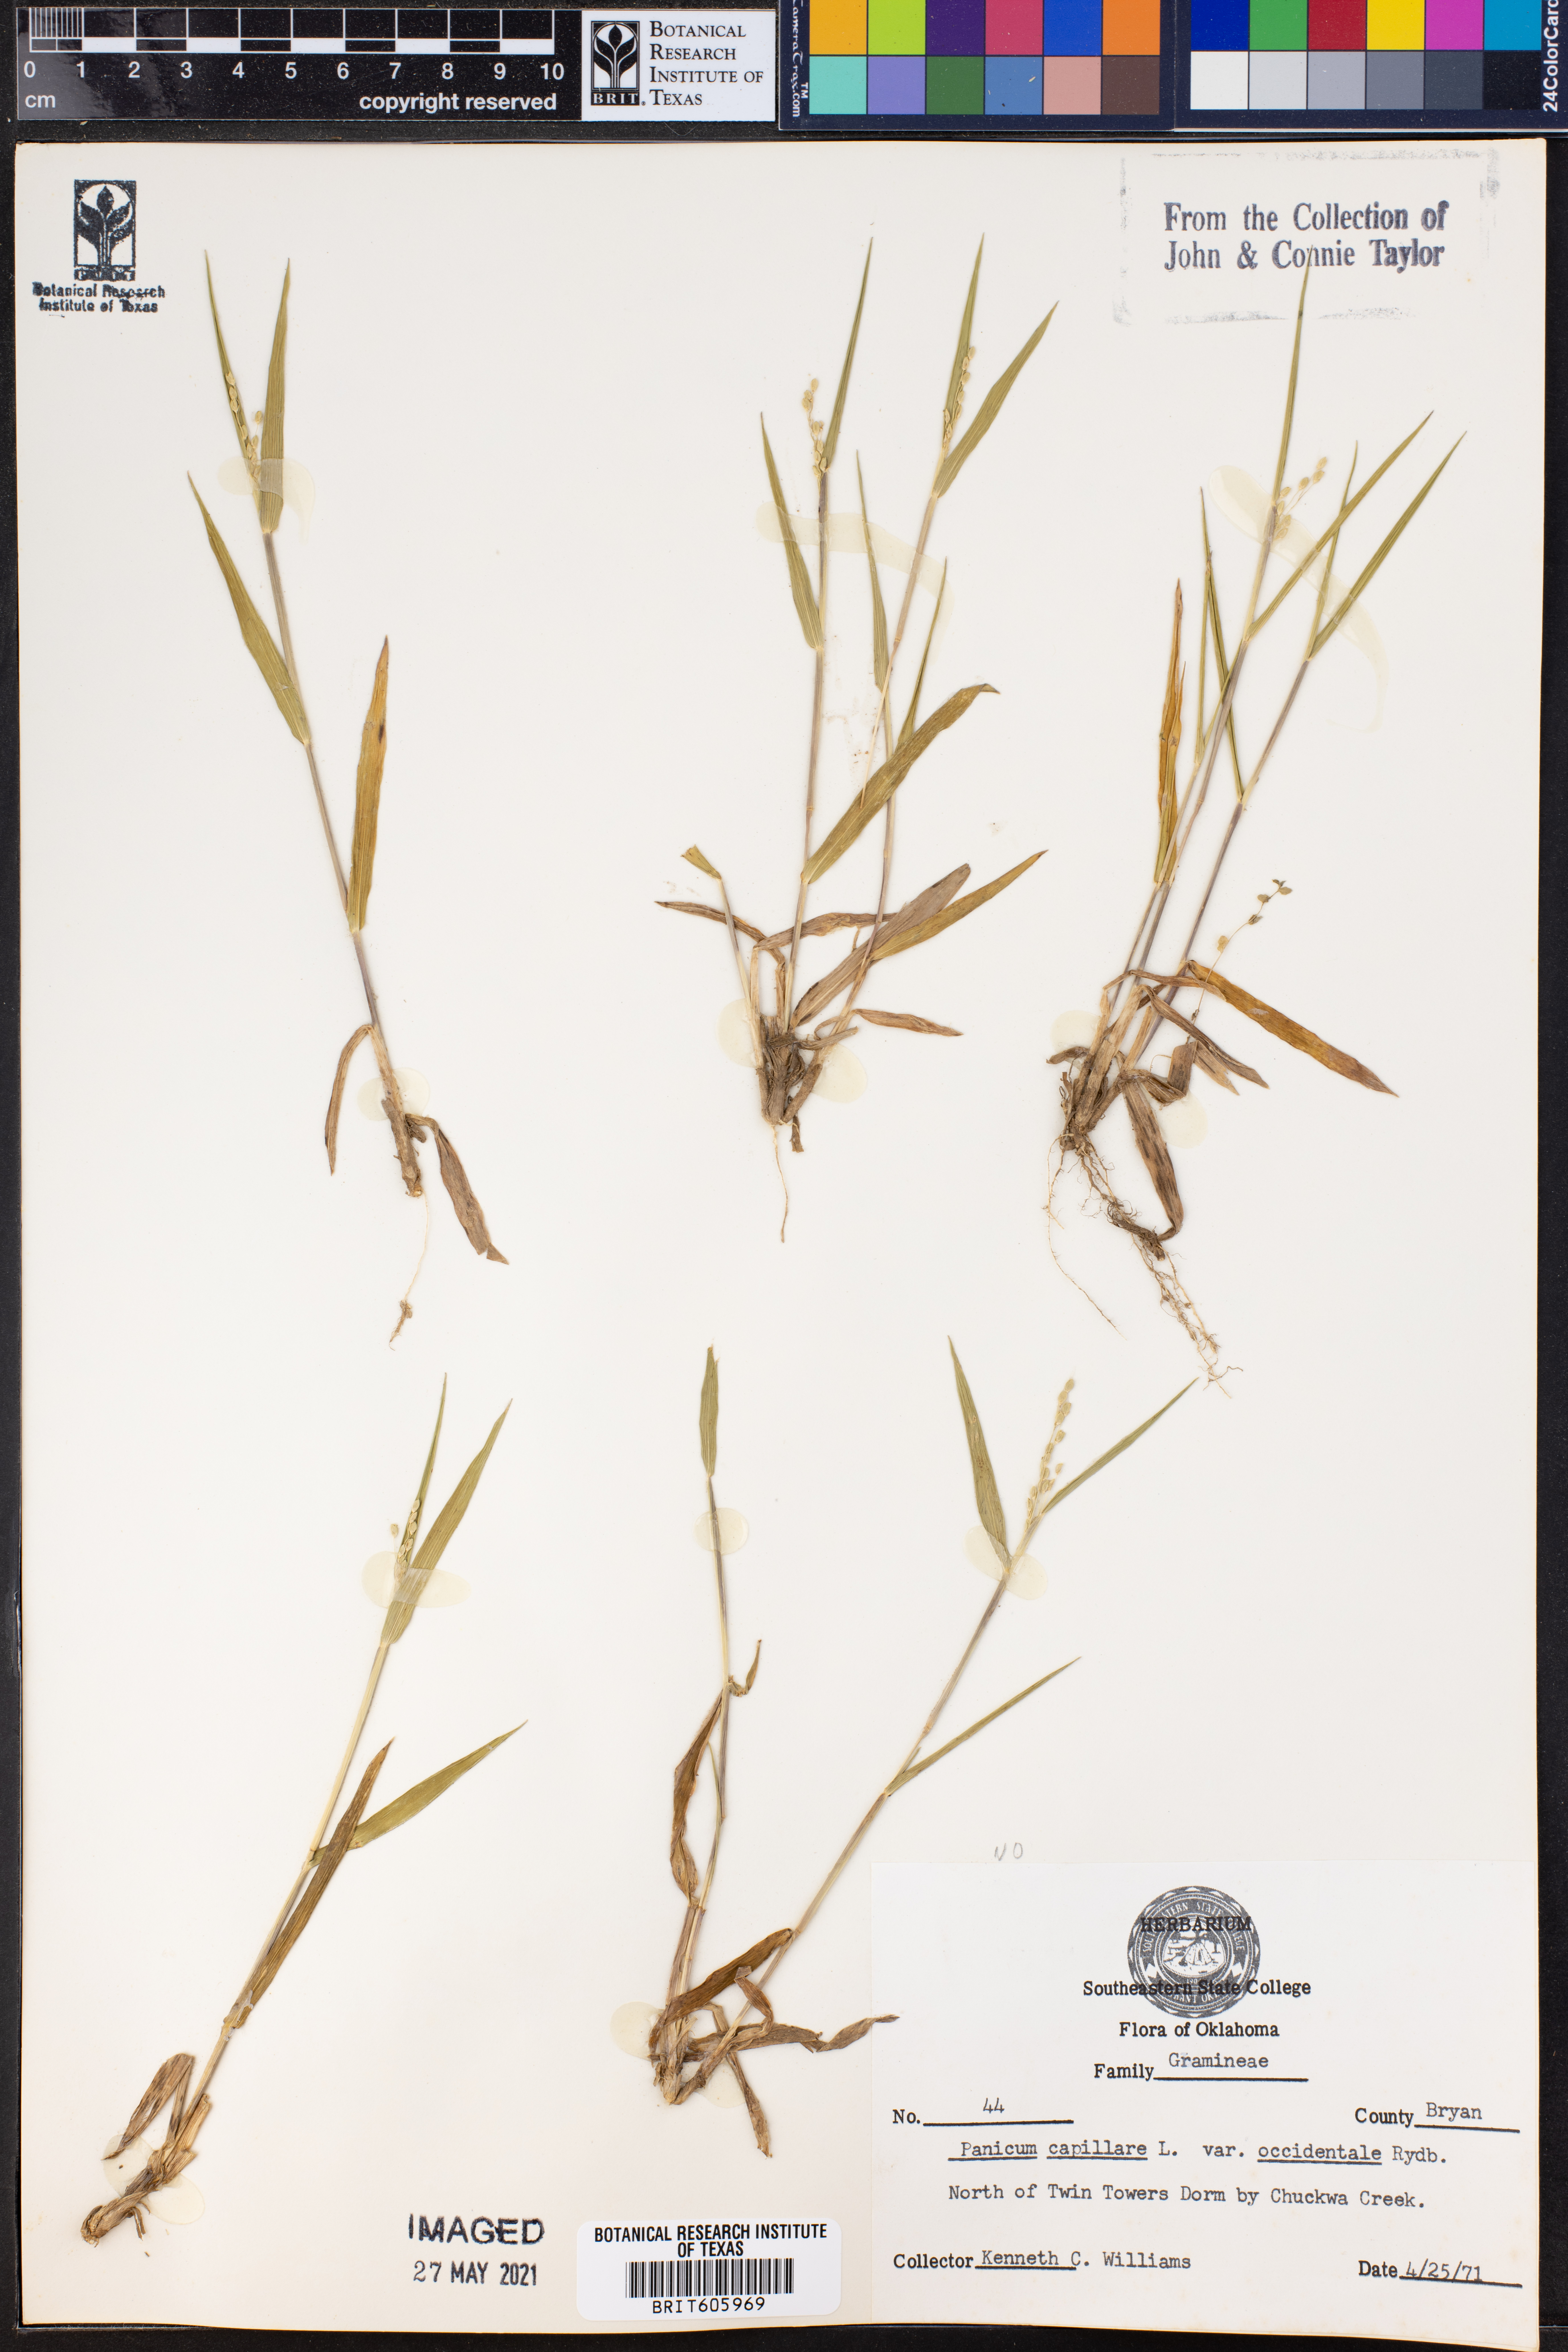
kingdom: Plantae
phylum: Tracheophyta
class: Liliopsida
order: Poales
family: Poaceae
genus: Panicum
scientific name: Panicum capillare
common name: Witch-grass
